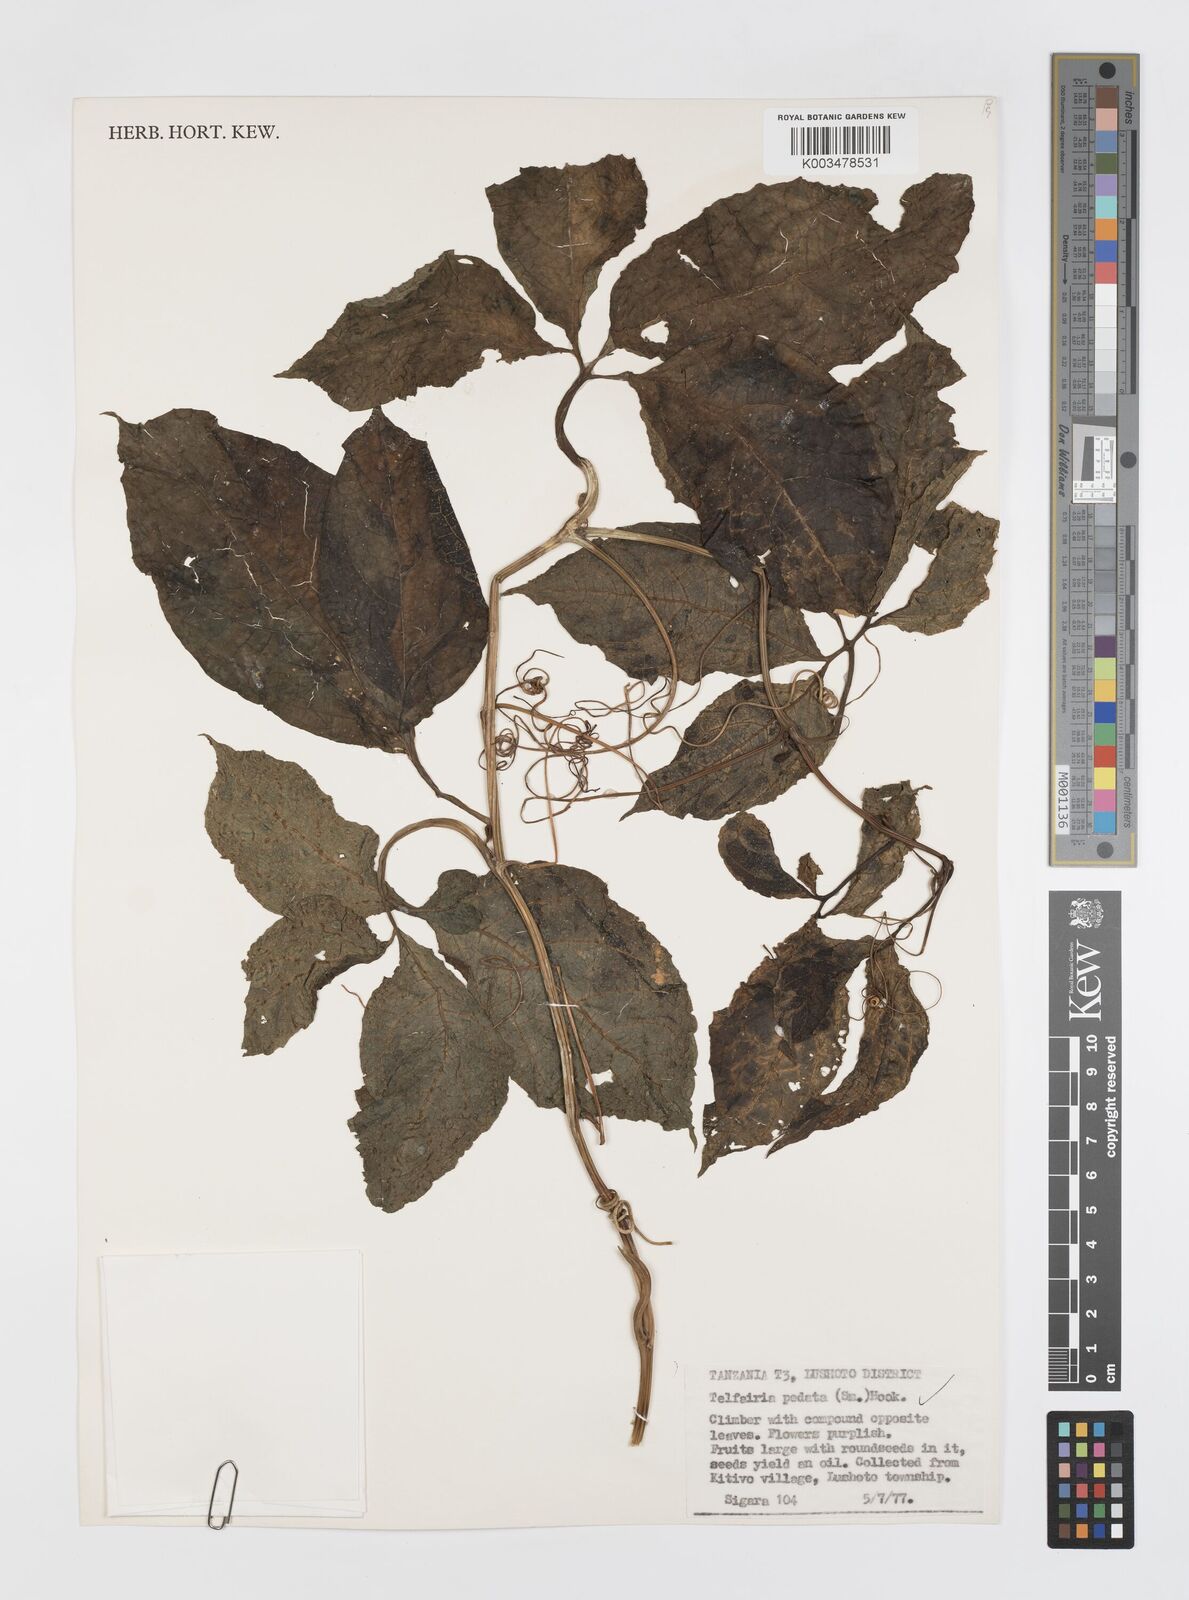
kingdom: Plantae
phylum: Tracheophyta
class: Magnoliopsida
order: Cucurbitales
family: Cucurbitaceae
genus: Telfairia
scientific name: Telfairia pedata
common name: Zanzibar oilvine
